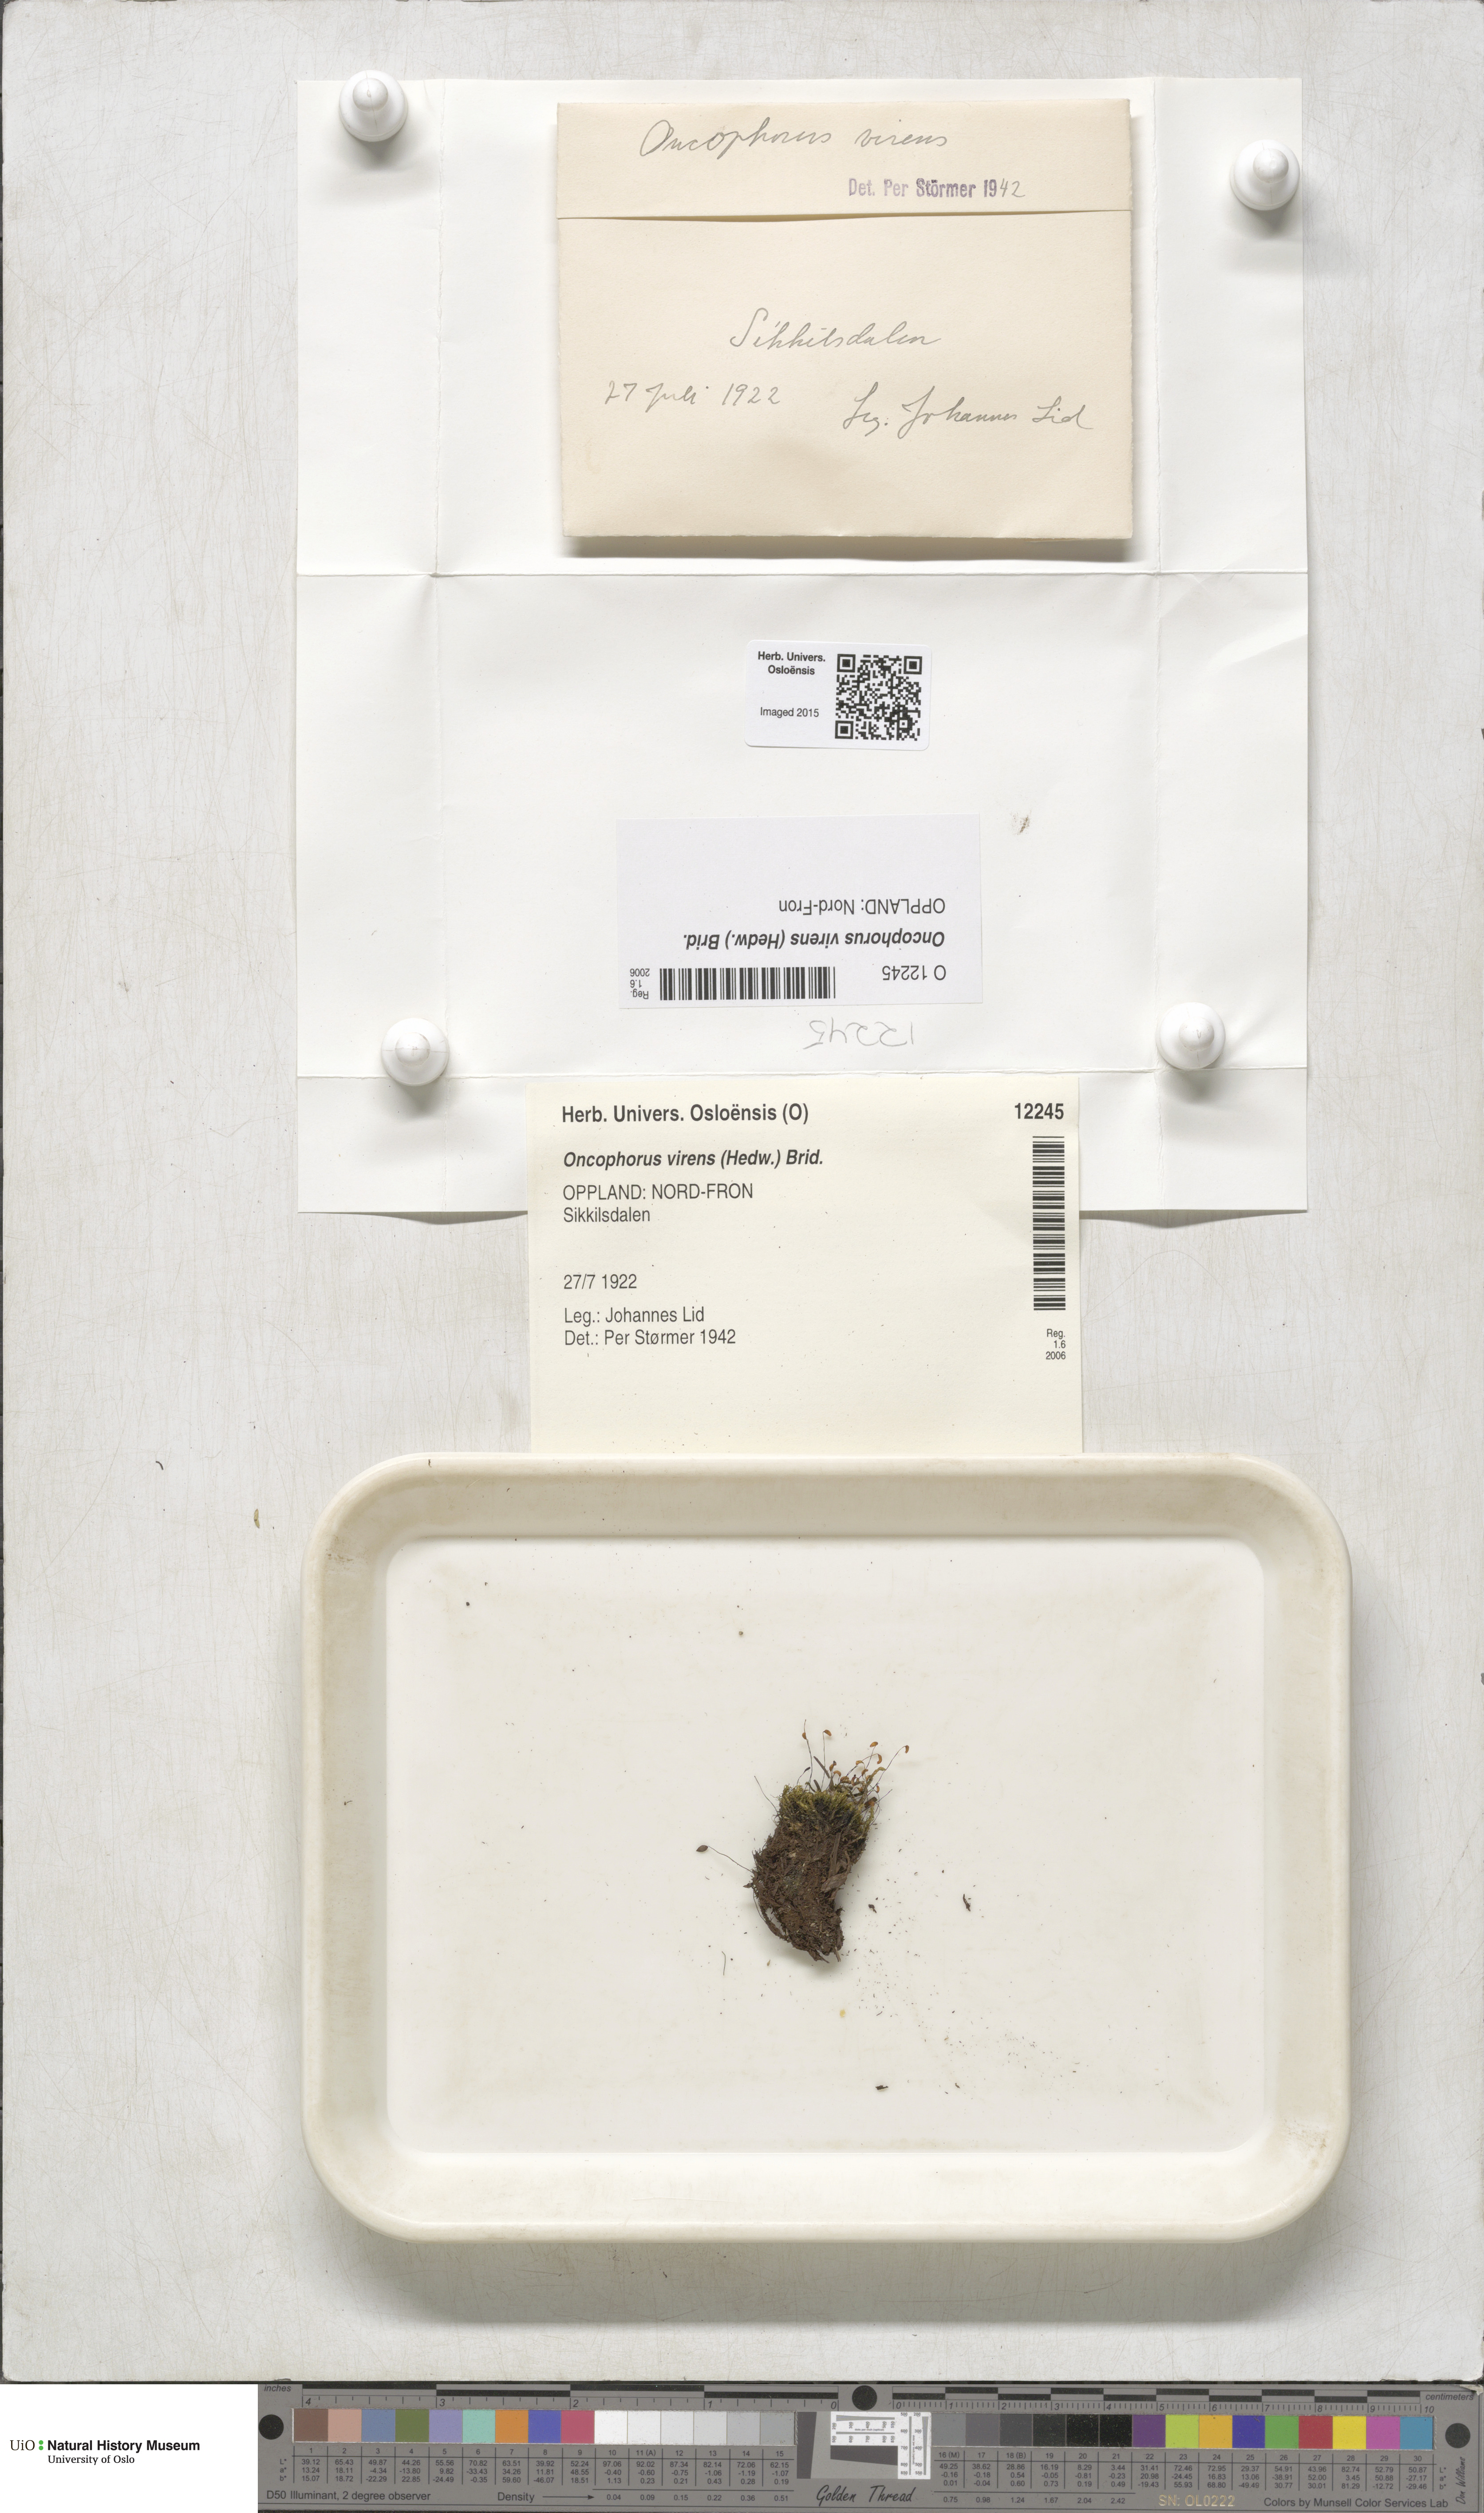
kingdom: Plantae
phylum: Bryophyta
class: Bryopsida
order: Dicranales
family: Rhabdoweisiaceae
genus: Oncophorus
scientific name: Oncophorus virens
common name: Green spur moss
